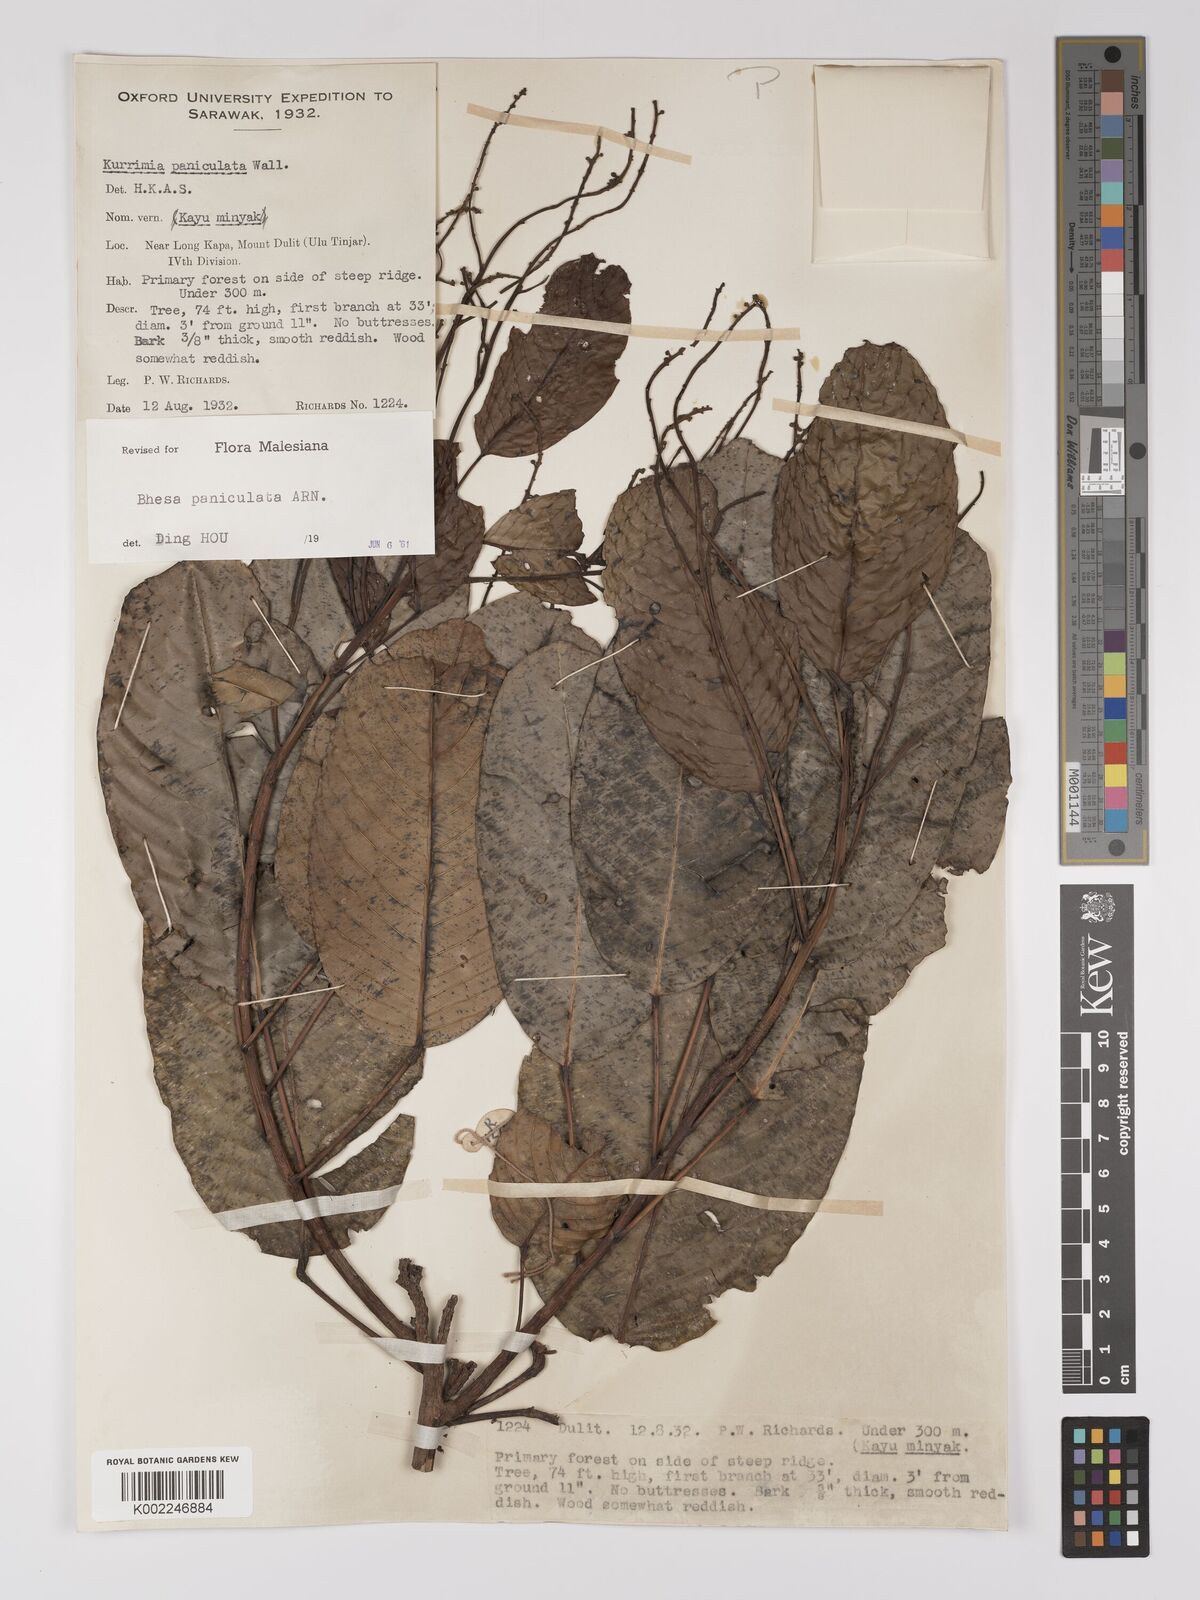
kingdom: Plantae
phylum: Tracheophyta
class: Magnoliopsida
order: Malpighiales
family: Centroplacaceae
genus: Bhesa
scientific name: Bhesa paniculata
